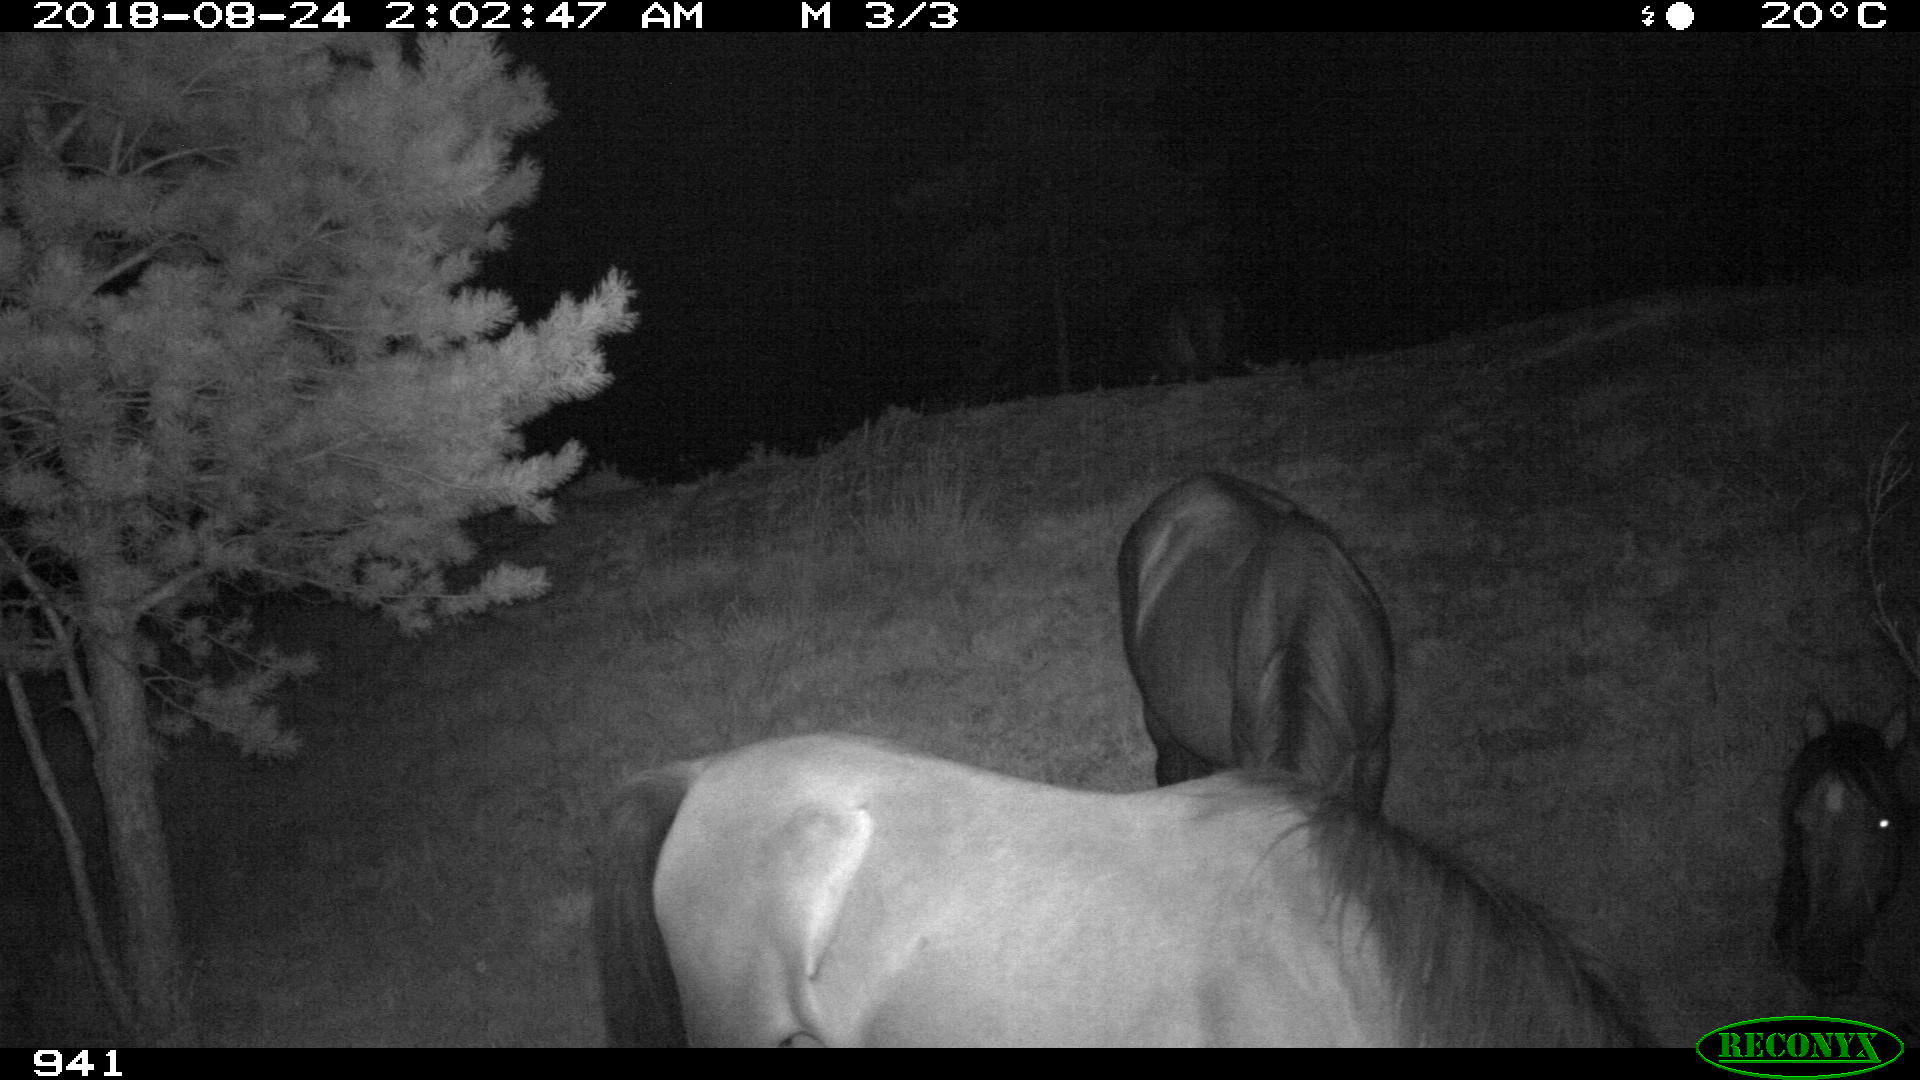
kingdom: Animalia
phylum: Chordata
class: Mammalia
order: Perissodactyla
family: Equidae
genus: Equus
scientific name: Equus caballus
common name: Horse
